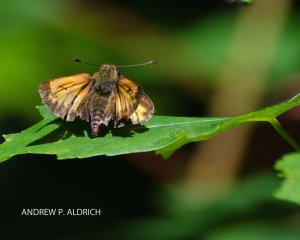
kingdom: Animalia
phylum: Arthropoda
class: Insecta
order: Lepidoptera
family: Hesperiidae
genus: Lon
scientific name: Lon hobomok
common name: Hobomok Skipper
